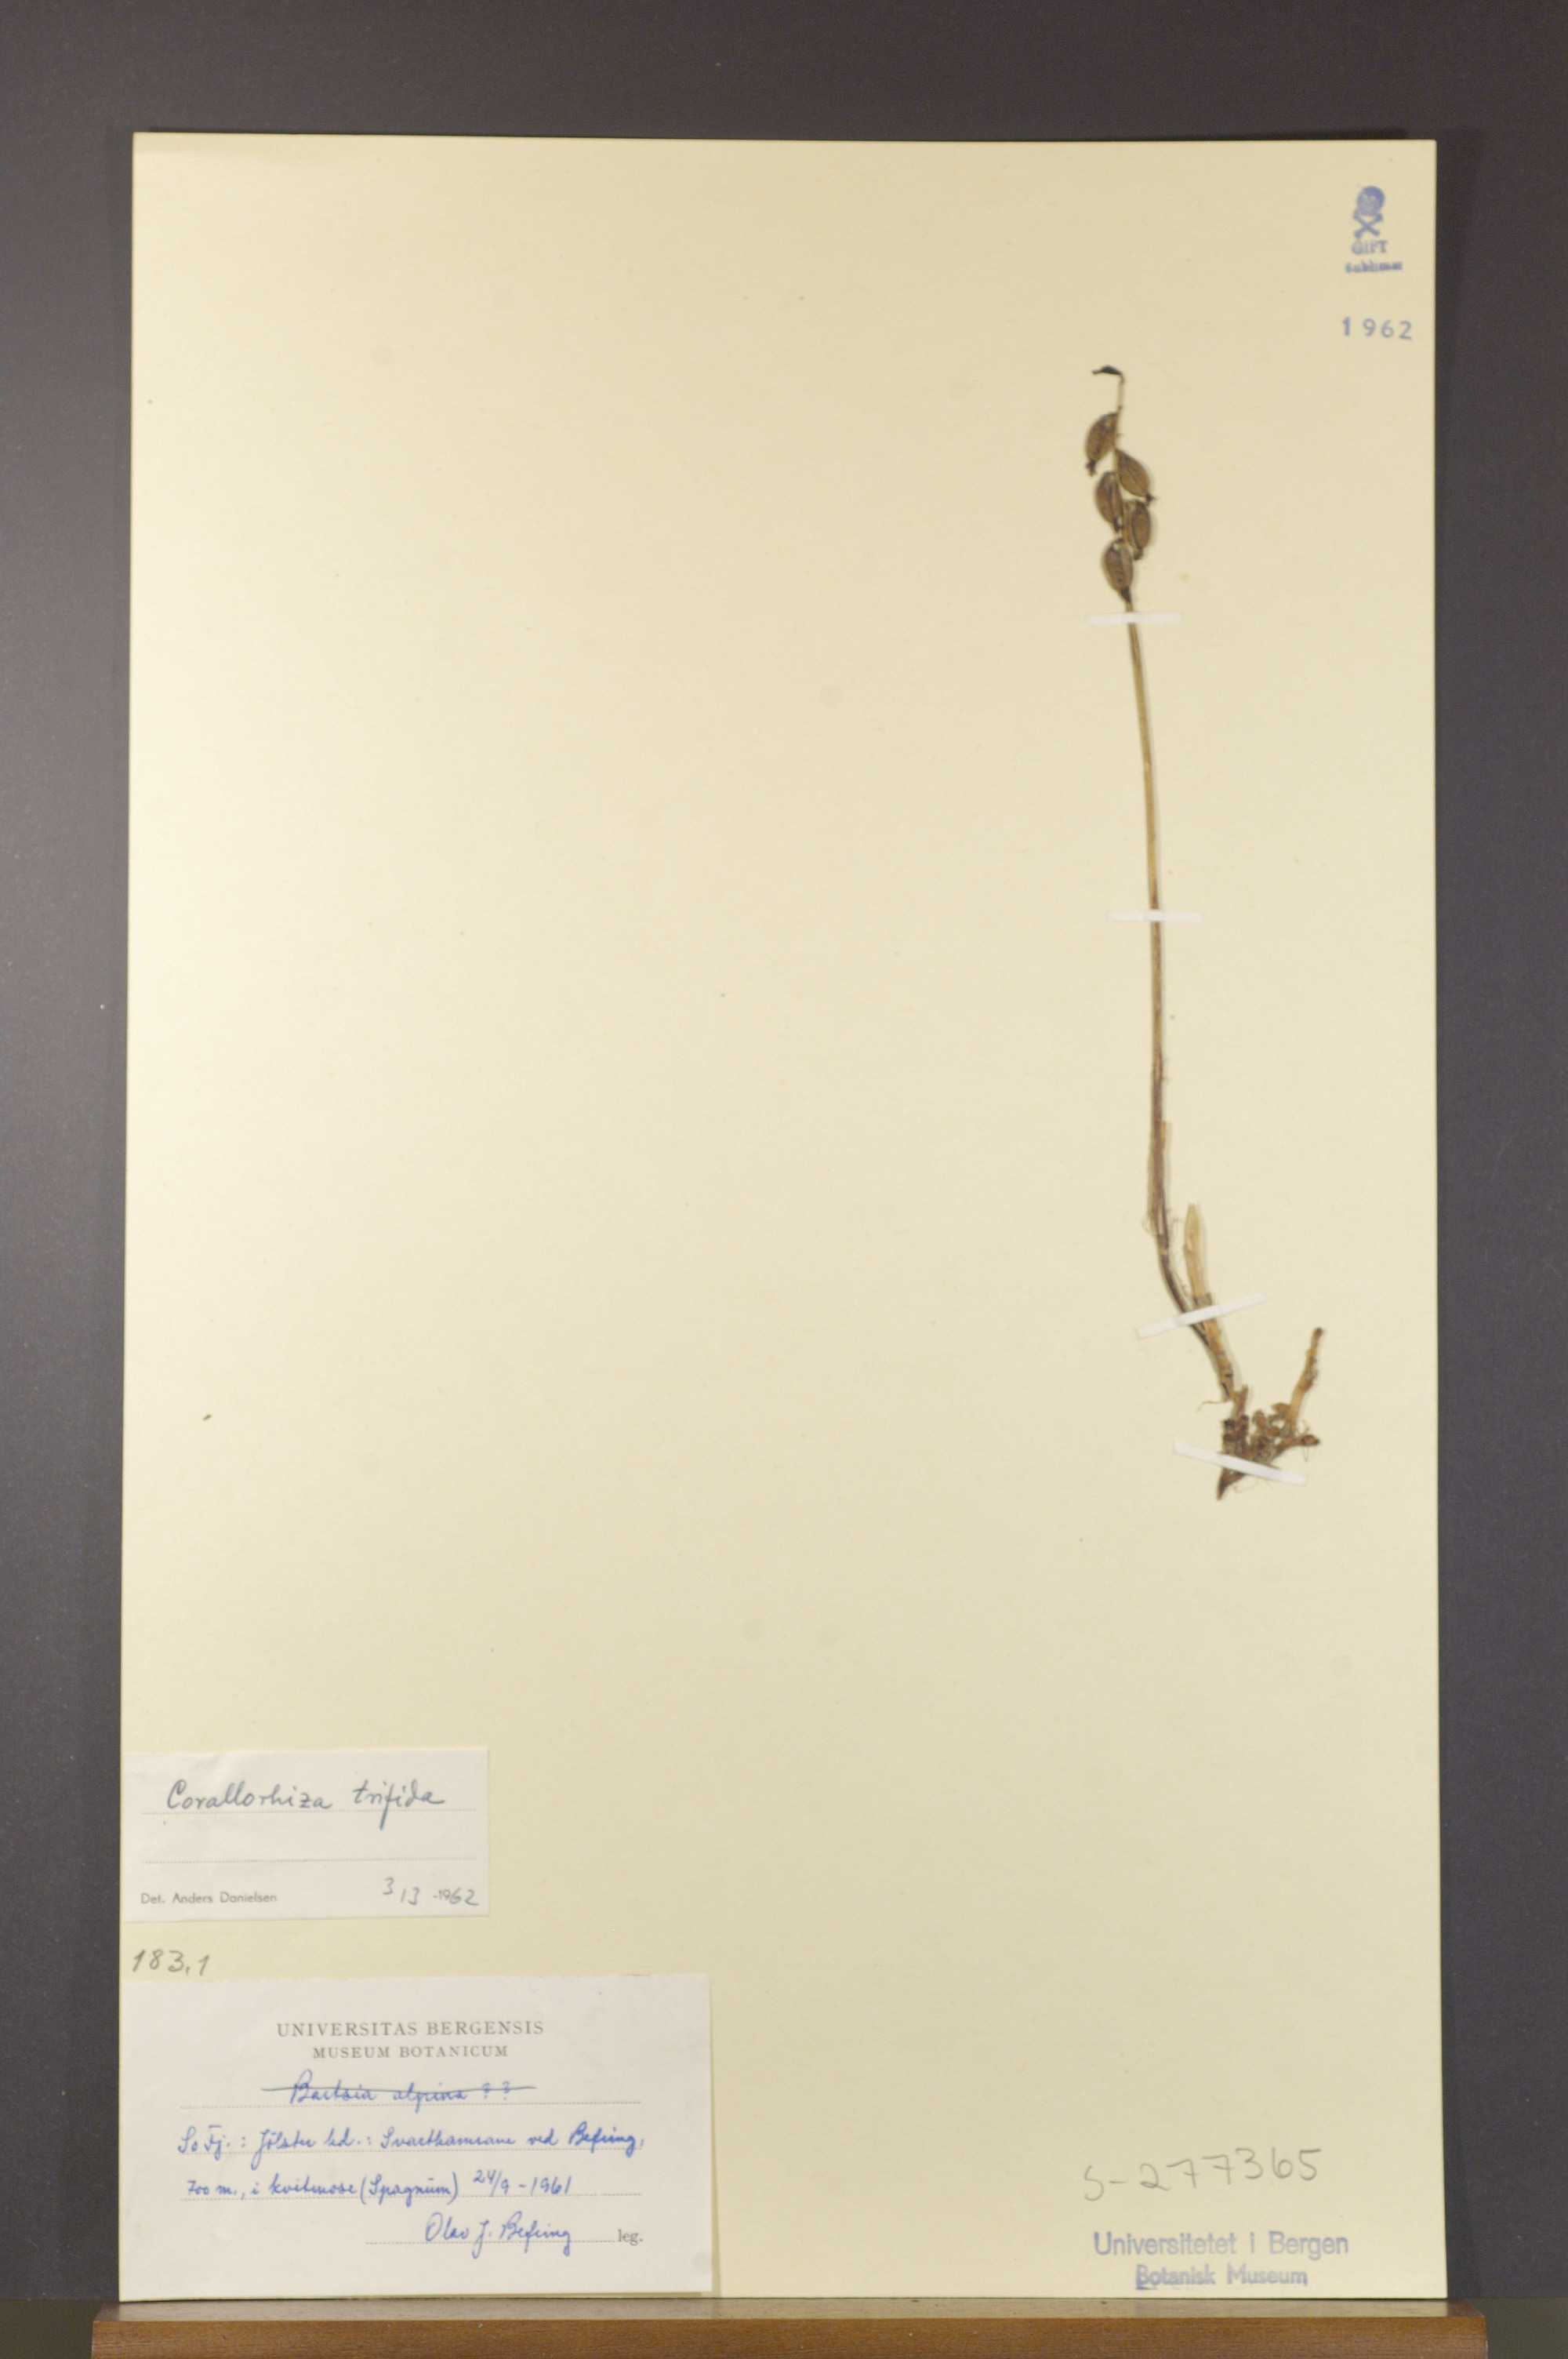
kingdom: Plantae
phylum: Tracheophyta
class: Liliopsida
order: Asparagales
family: Orchidaceae
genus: Corallorhiza
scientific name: Corallorhiza trifida
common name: Yellow coralroot
